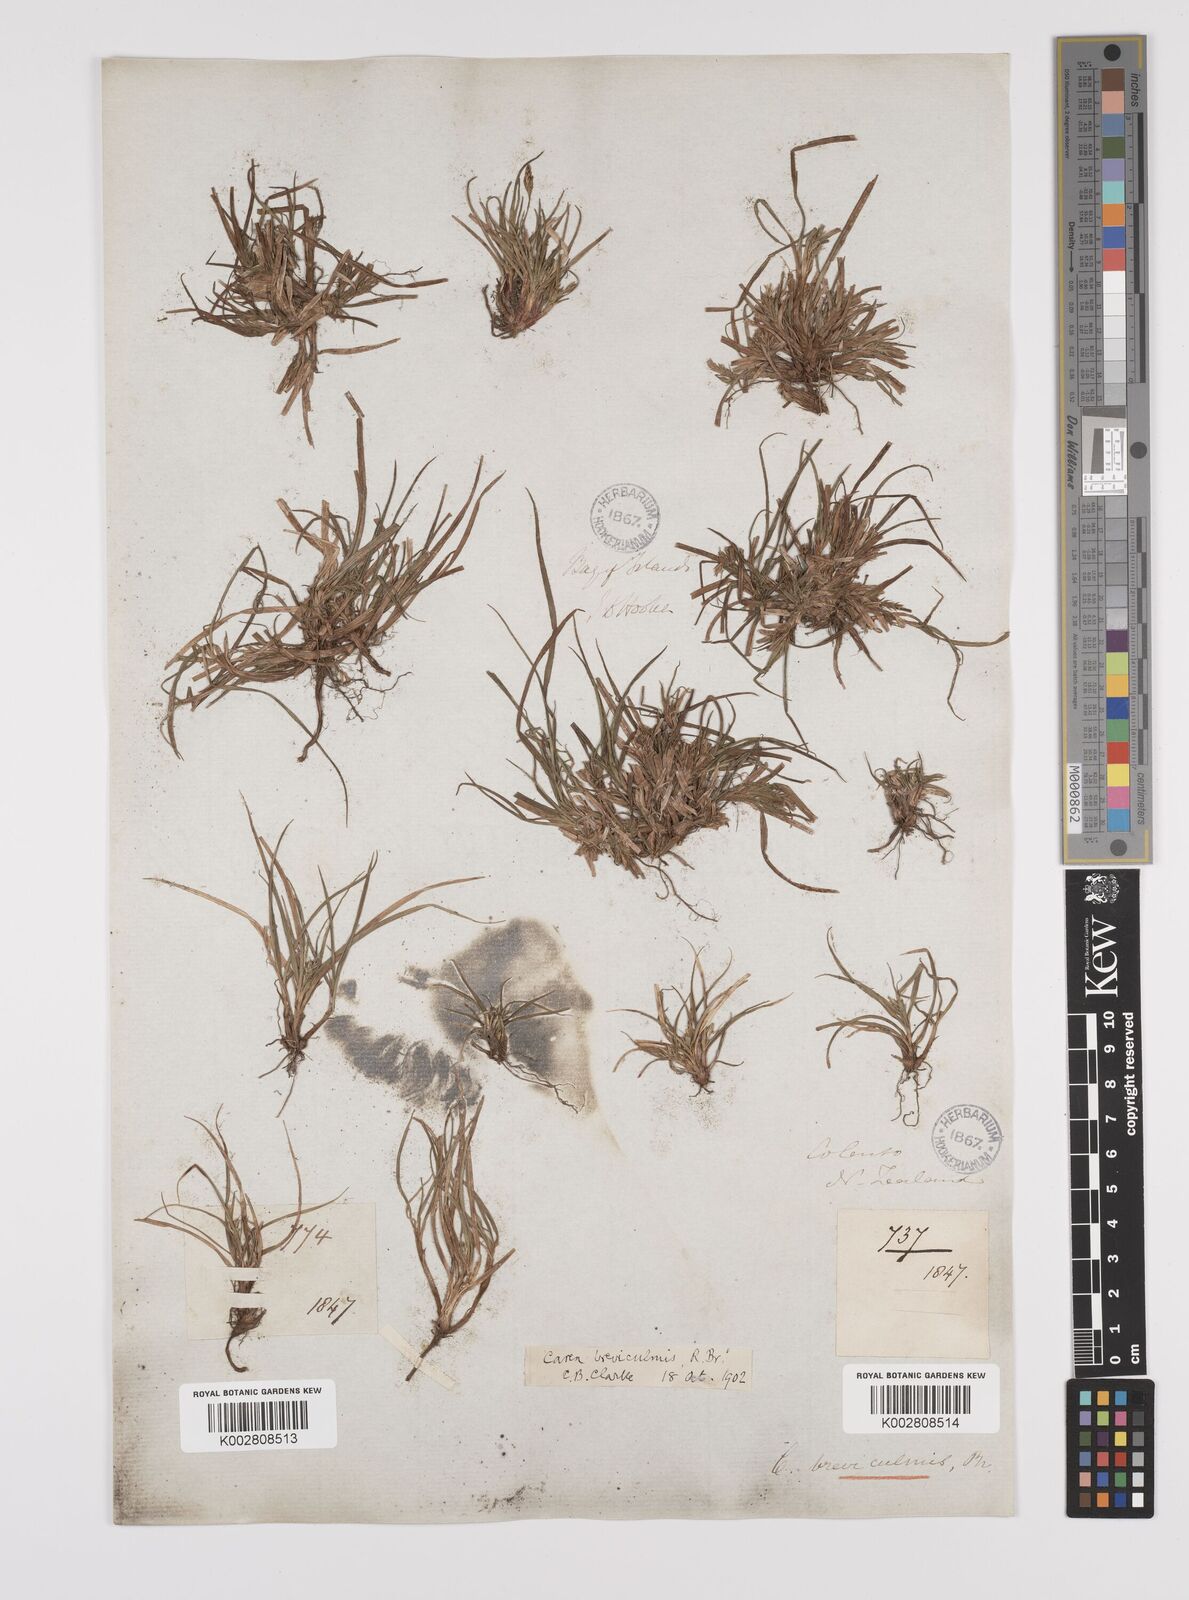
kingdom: Plantae
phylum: Tracheophyta
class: Liliopsida
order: Poales
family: Cyperaceae
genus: Carex
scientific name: Carex breviculmis
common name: Asian shortstem sedge
